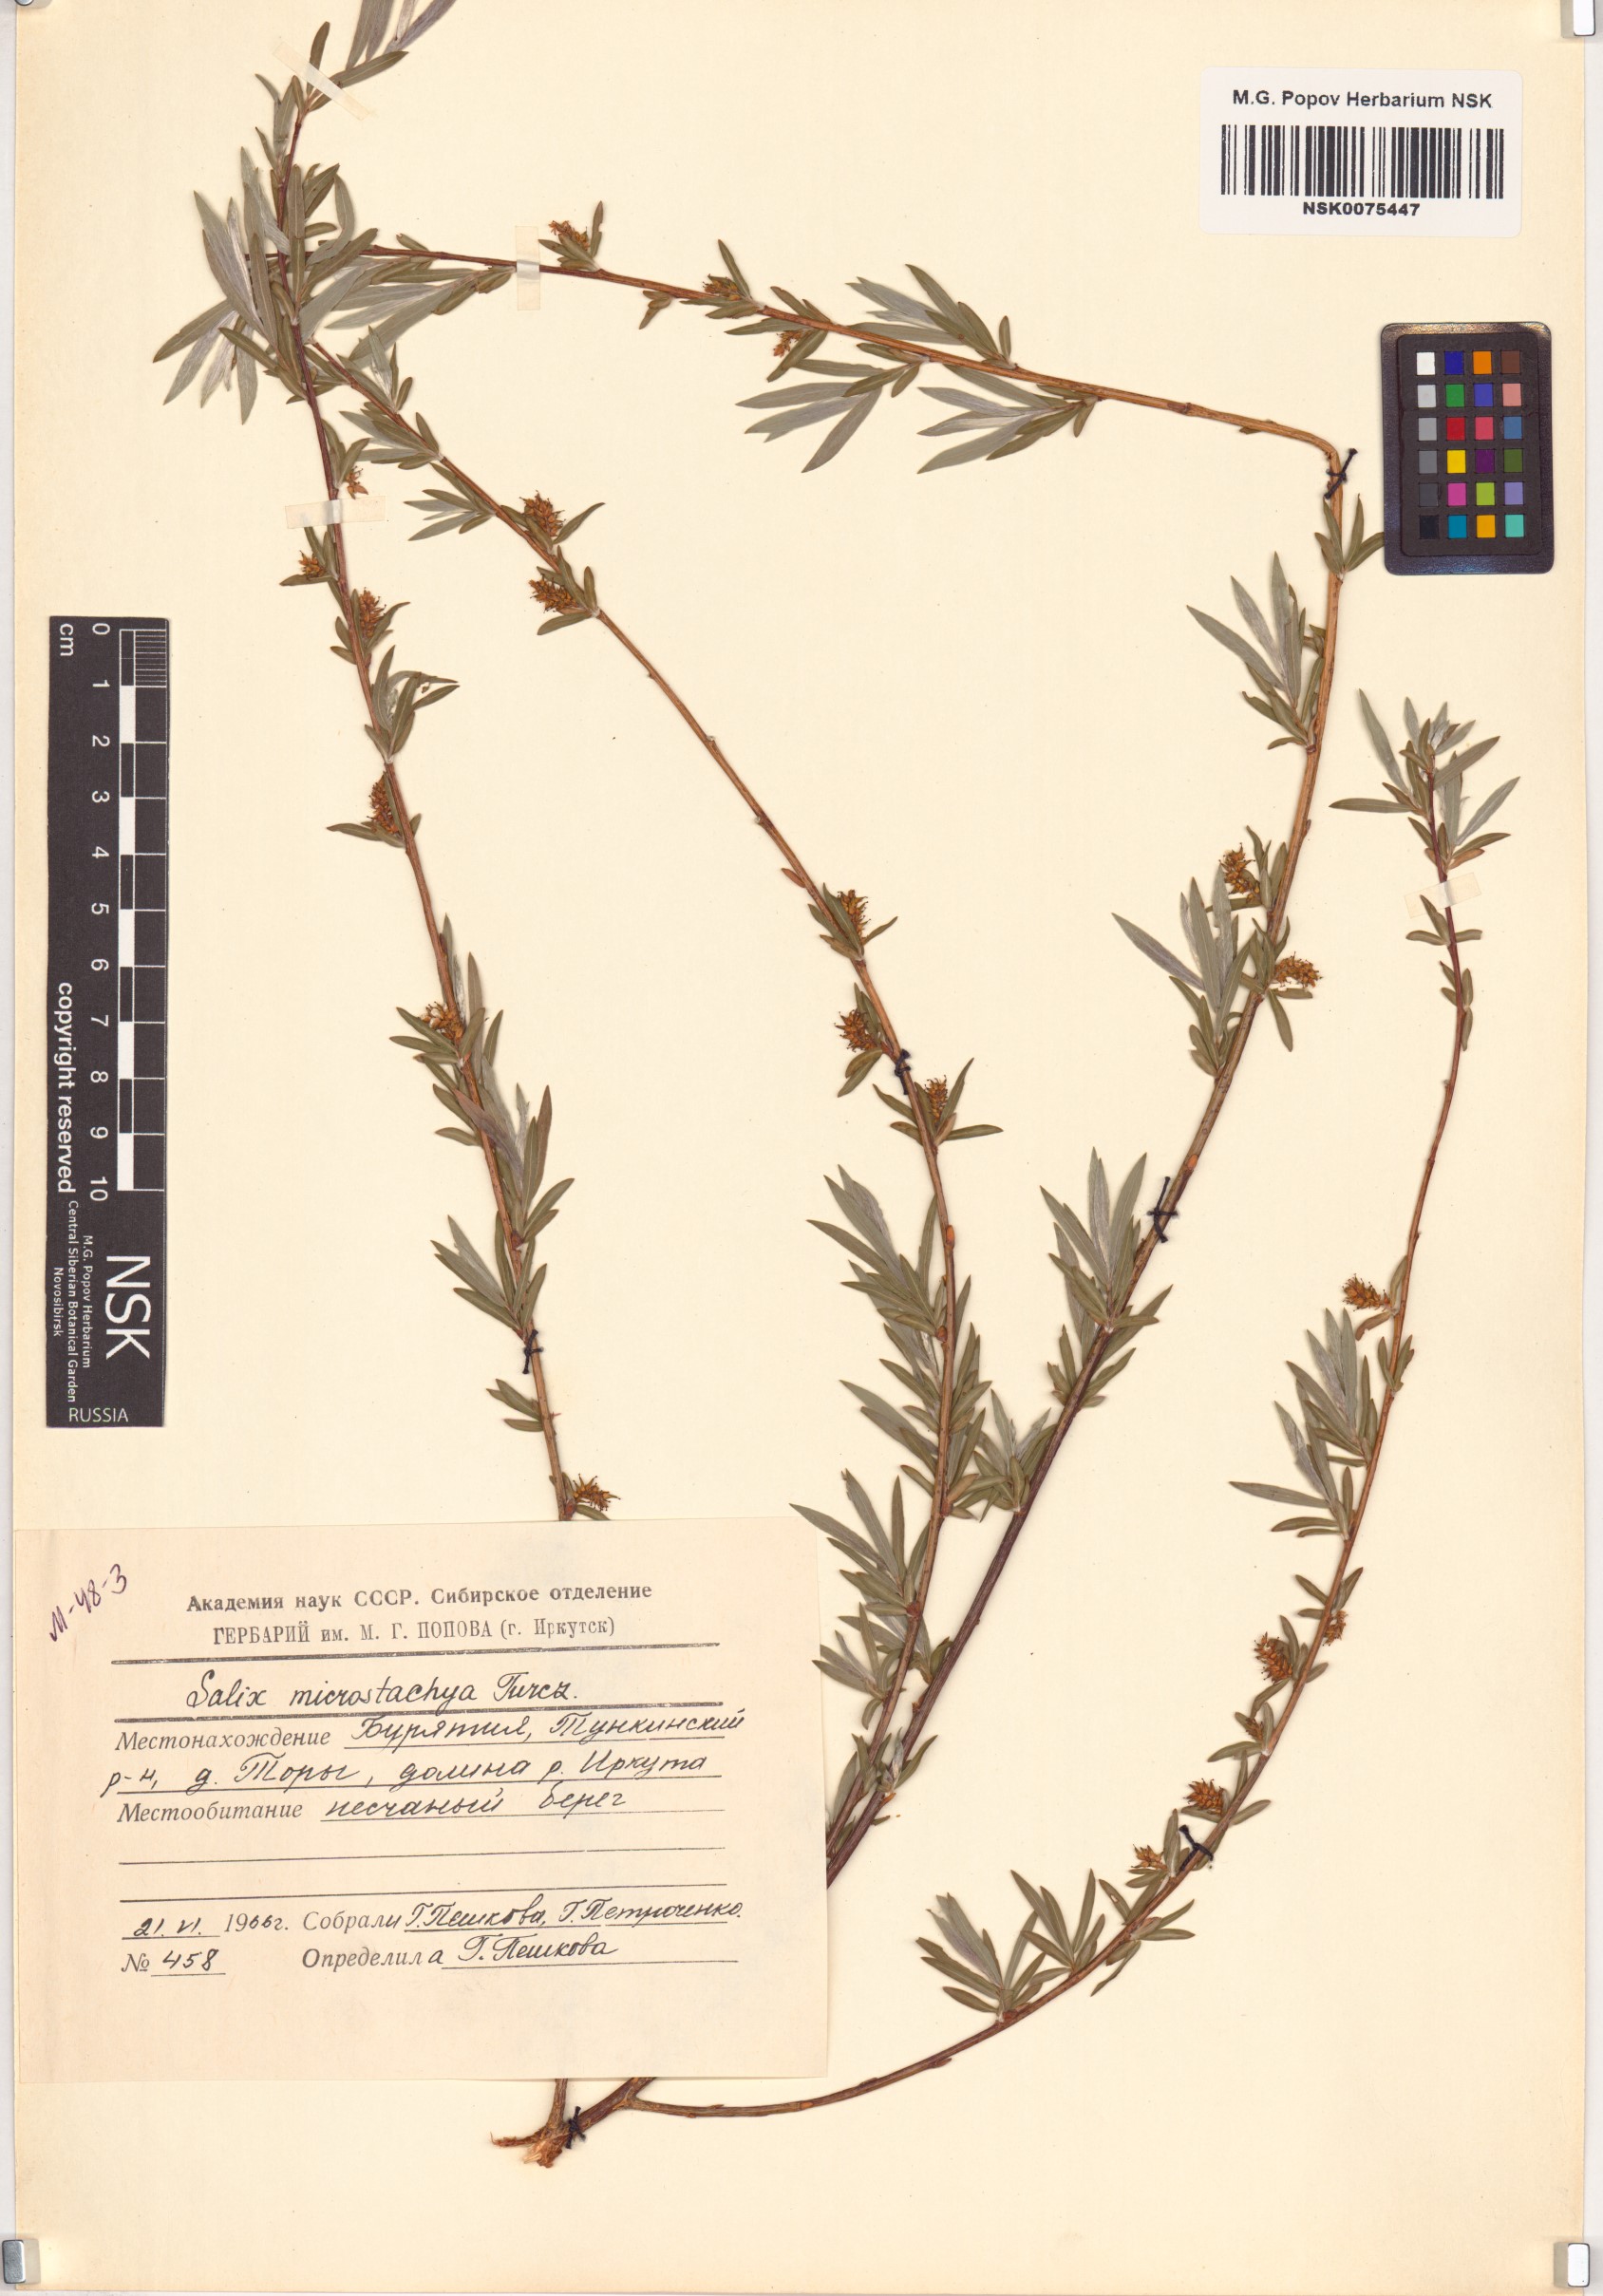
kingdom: Plantae
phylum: Tracheophyta
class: Magnoliopsida
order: Malpighiales
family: Salicaceae
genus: Salix
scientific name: Salix microstachya
